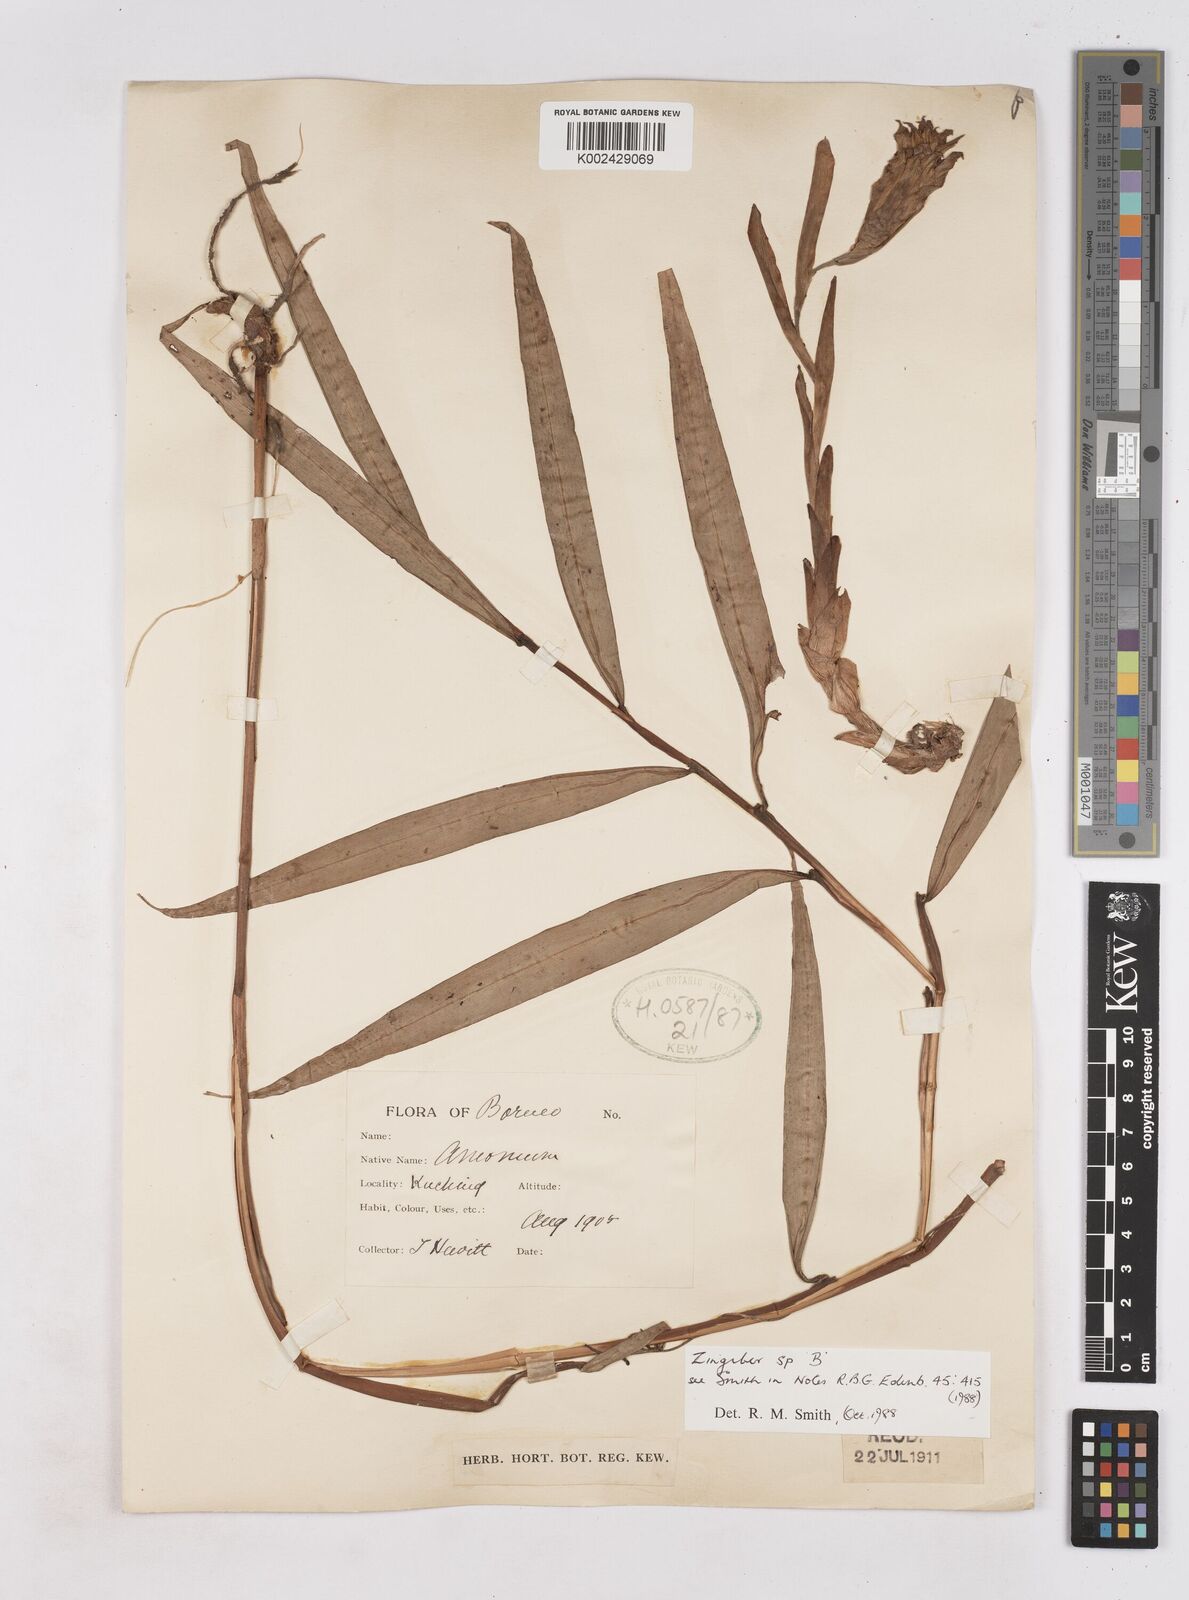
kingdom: Plantae
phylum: Tracheophyta
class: Liliopsida
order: Zingiberales
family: Zingiberaceae
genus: Zingiber
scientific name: Zingiber
